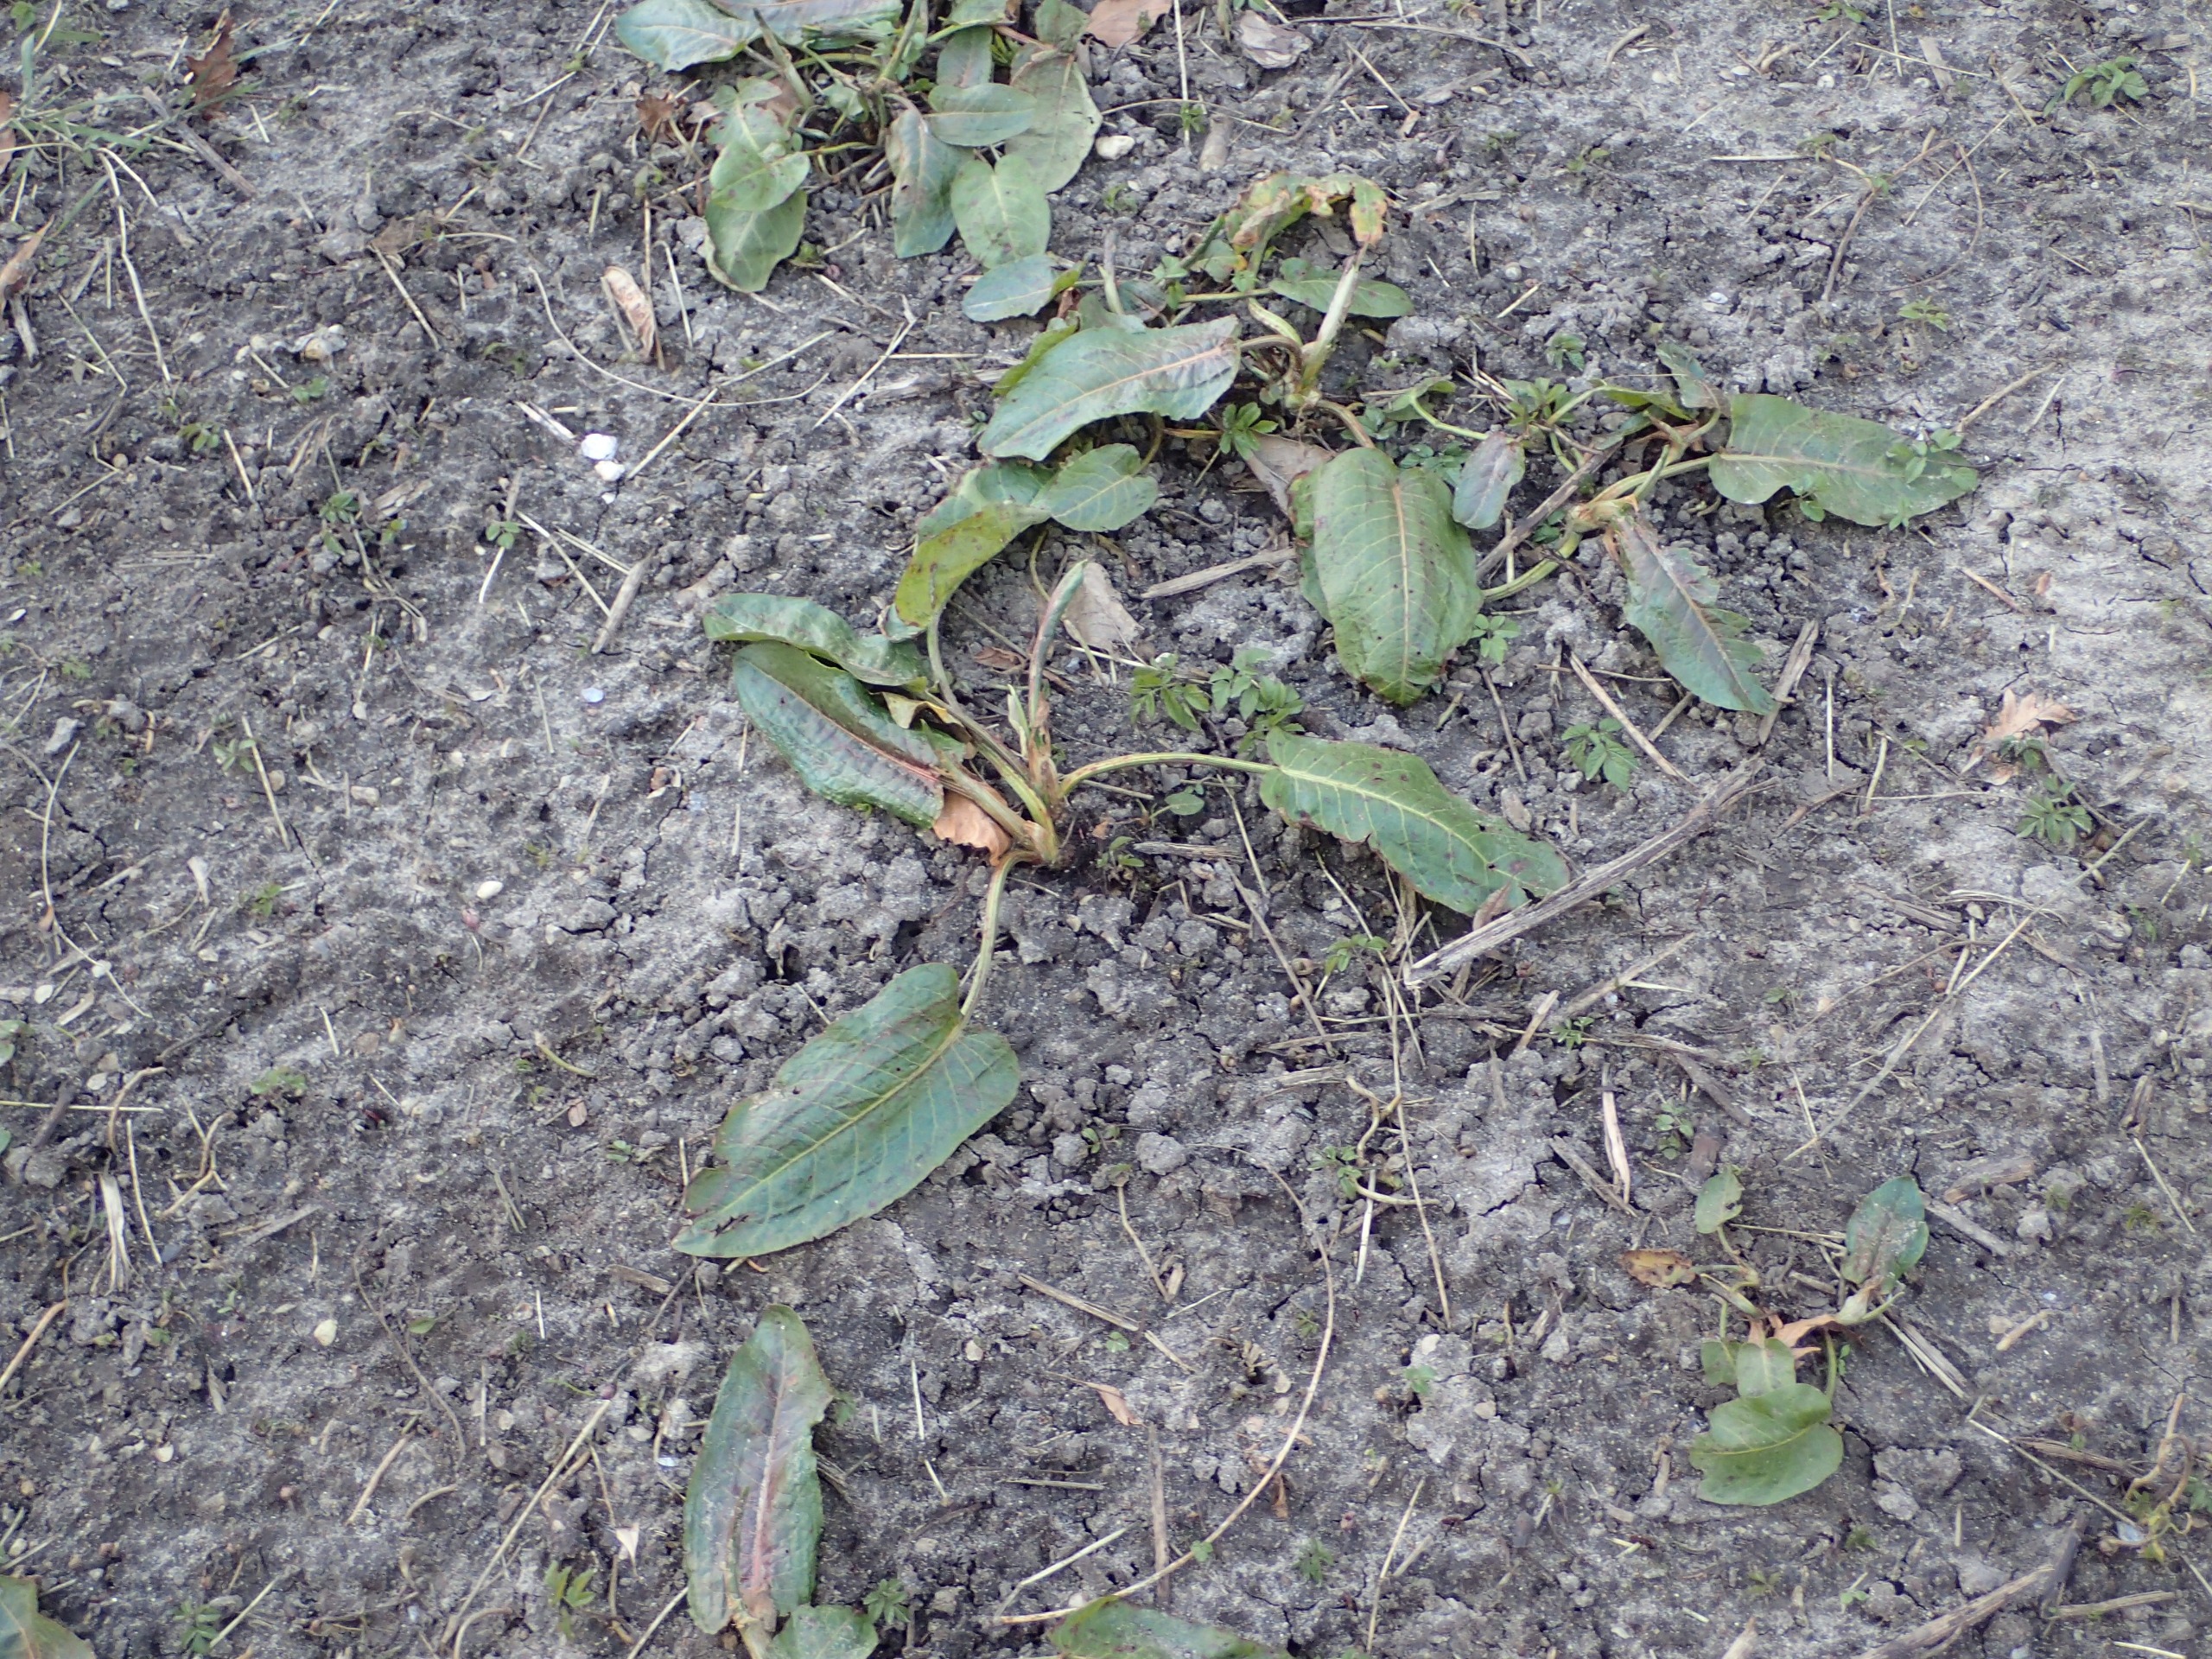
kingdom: Plantae
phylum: Tracheophyta
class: Magnoliopsida
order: Caryophyllales
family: Polygonaceae
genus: Rumex
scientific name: Rumex obtusifolius
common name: Butbladet skræppe
